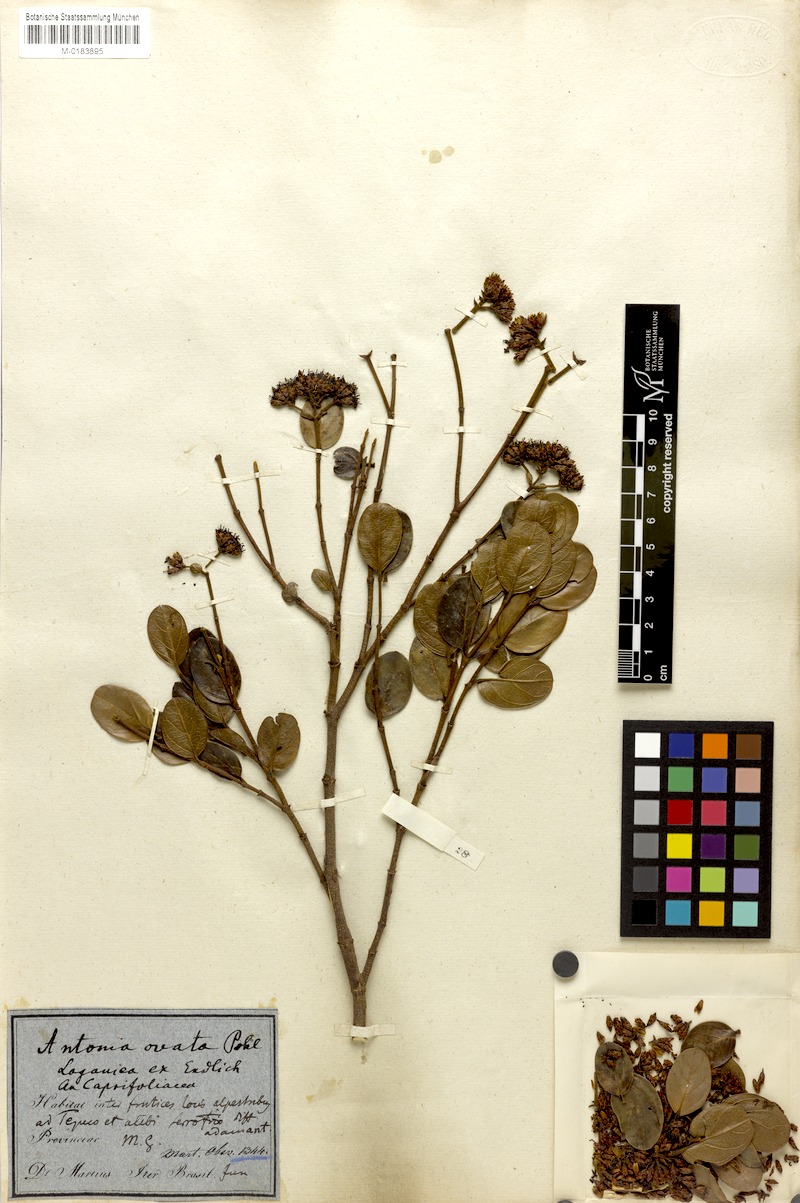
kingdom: Plantae
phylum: Tracheophyta
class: Magnoliopsida
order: Gentianales
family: Loganiaceae
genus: Antonia
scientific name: Antonia ovata
